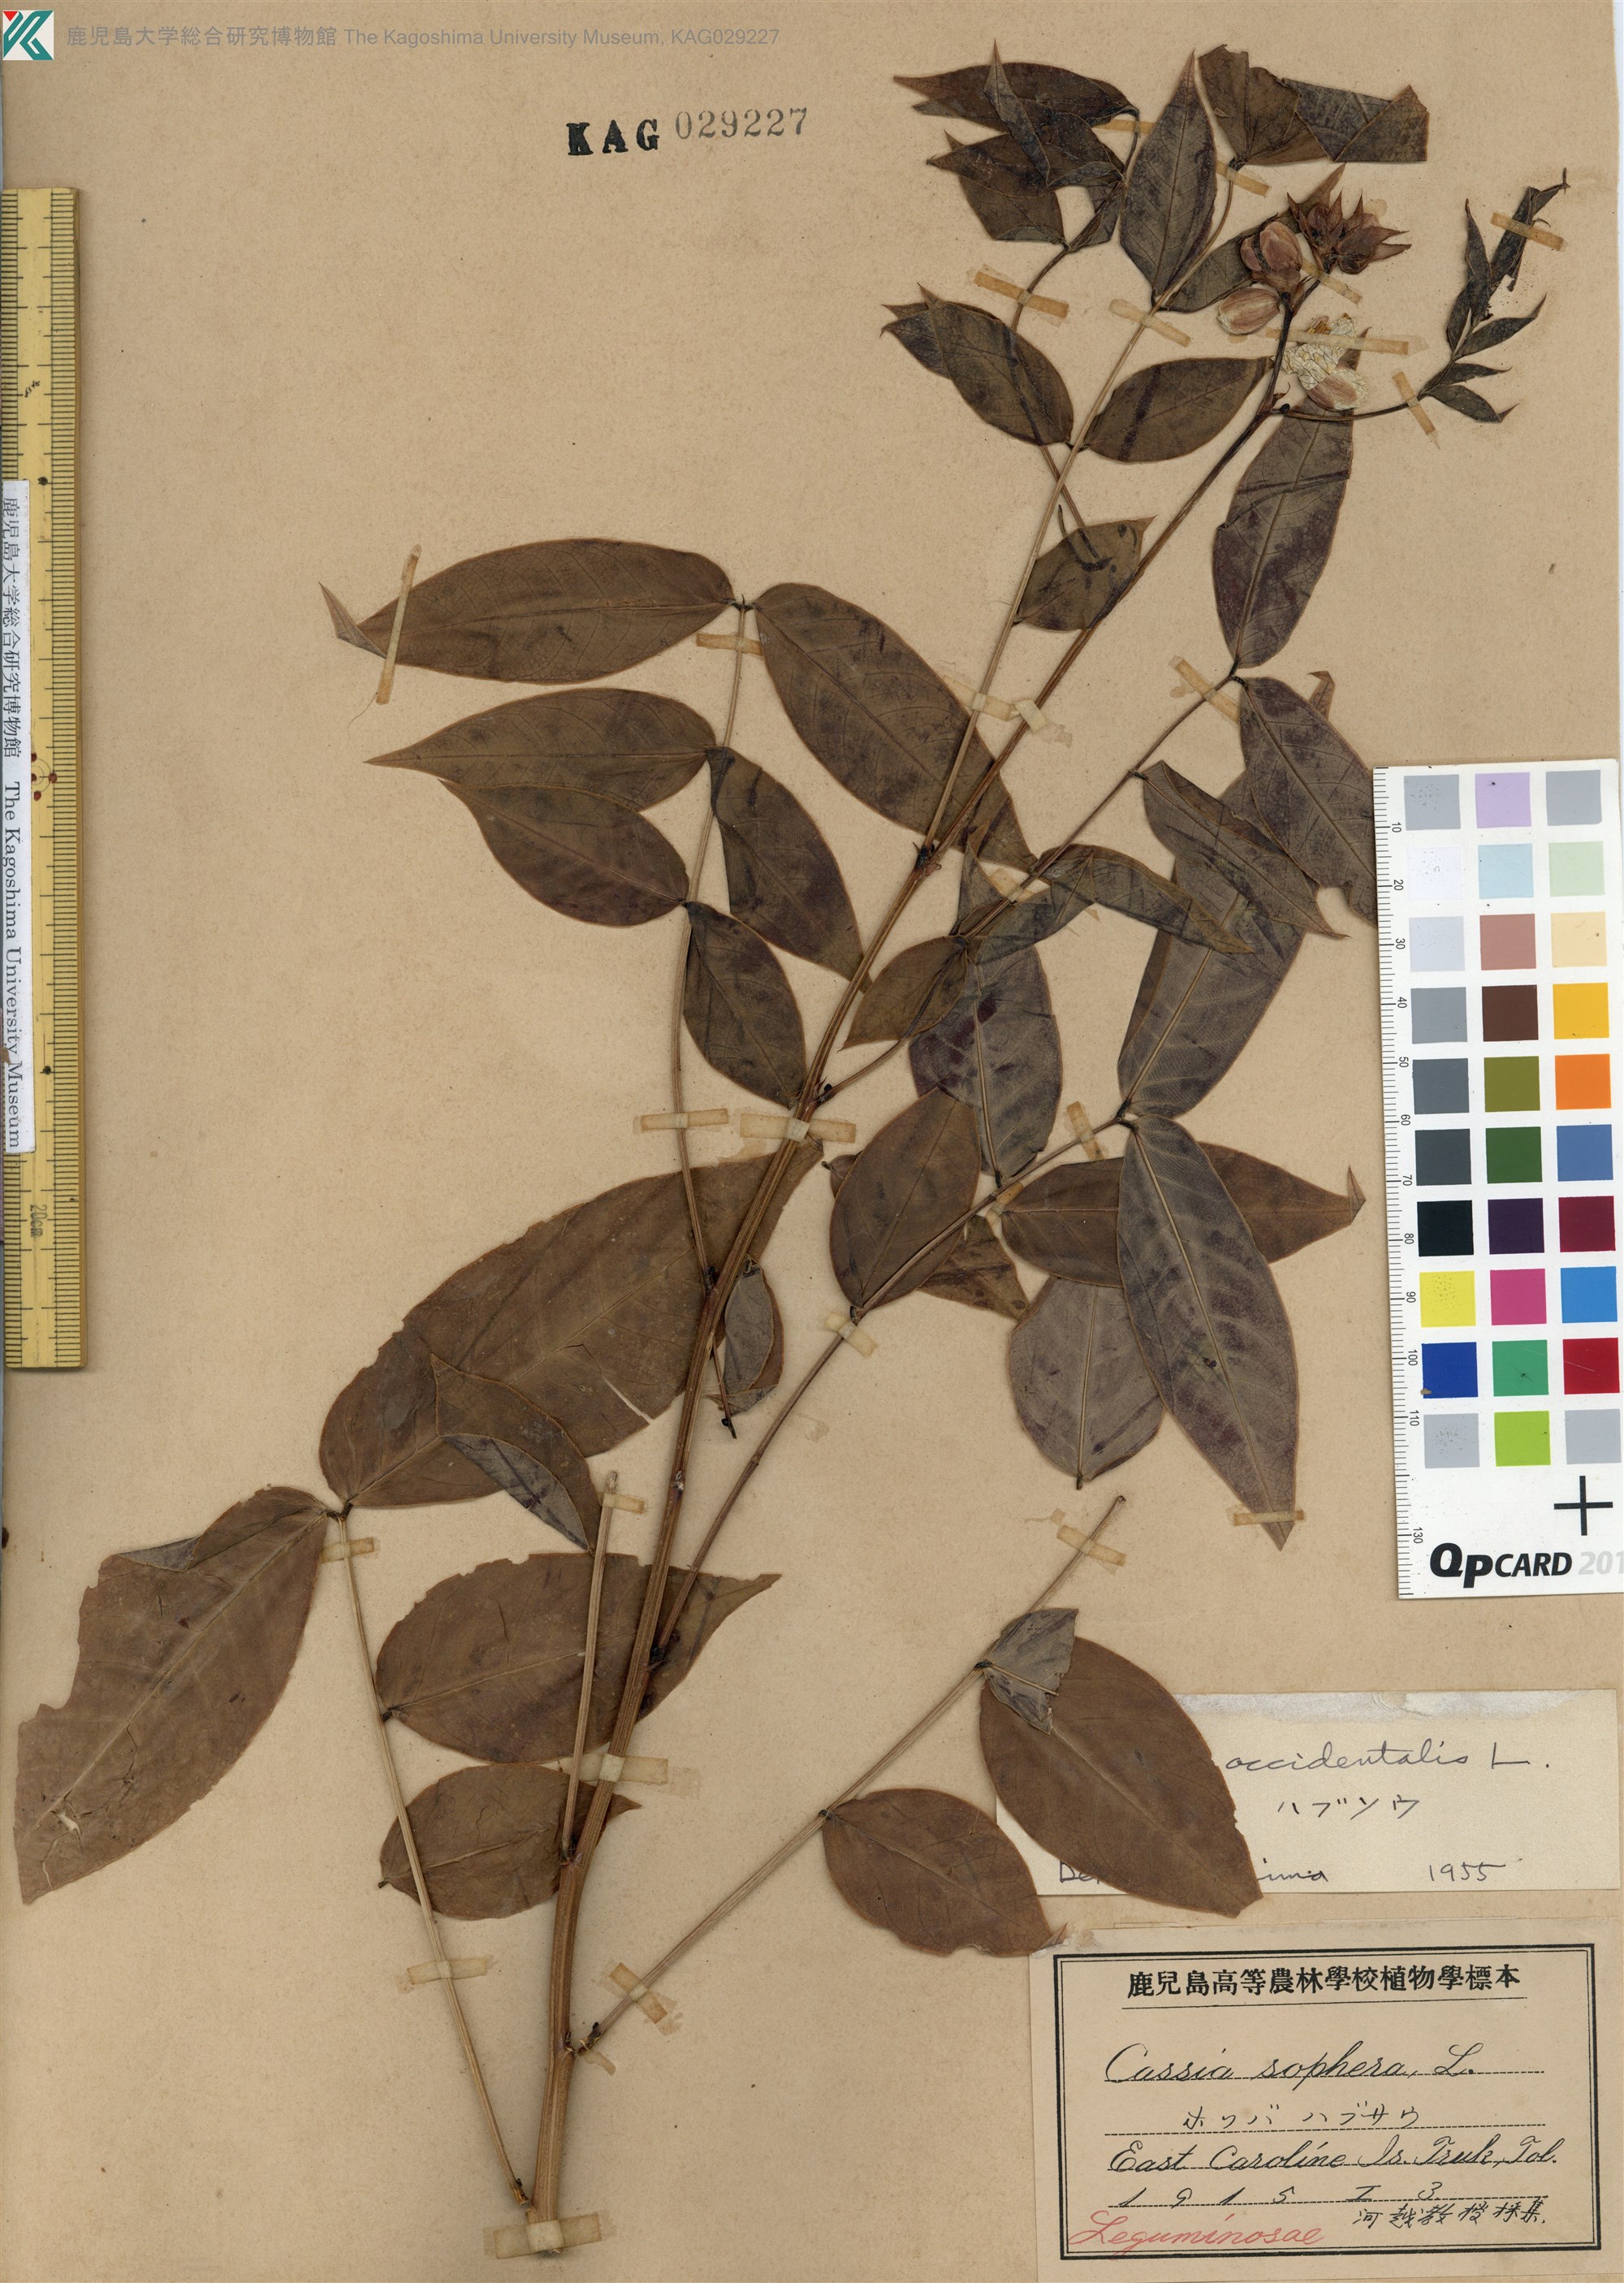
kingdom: Plantae
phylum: Tracheophyta
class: Magnoliopsida
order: Fabales
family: Fabaceae
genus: Senna
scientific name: Senna occidentalis
